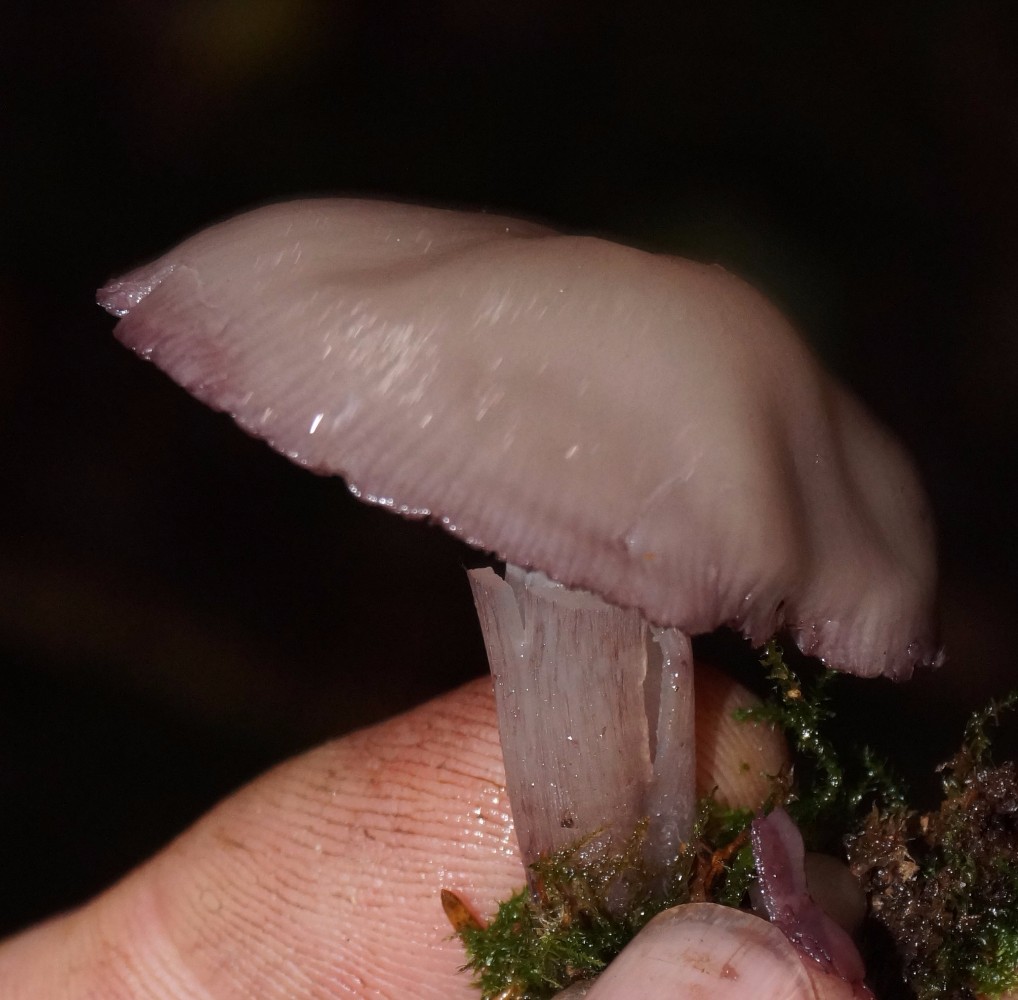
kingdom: Fungi
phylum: Basidiomycota
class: Agaricomycetes
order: Agaricales
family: Mycenaceae
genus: Mycena
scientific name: Mycena pelianthina
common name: mørkbladet huesvamp
